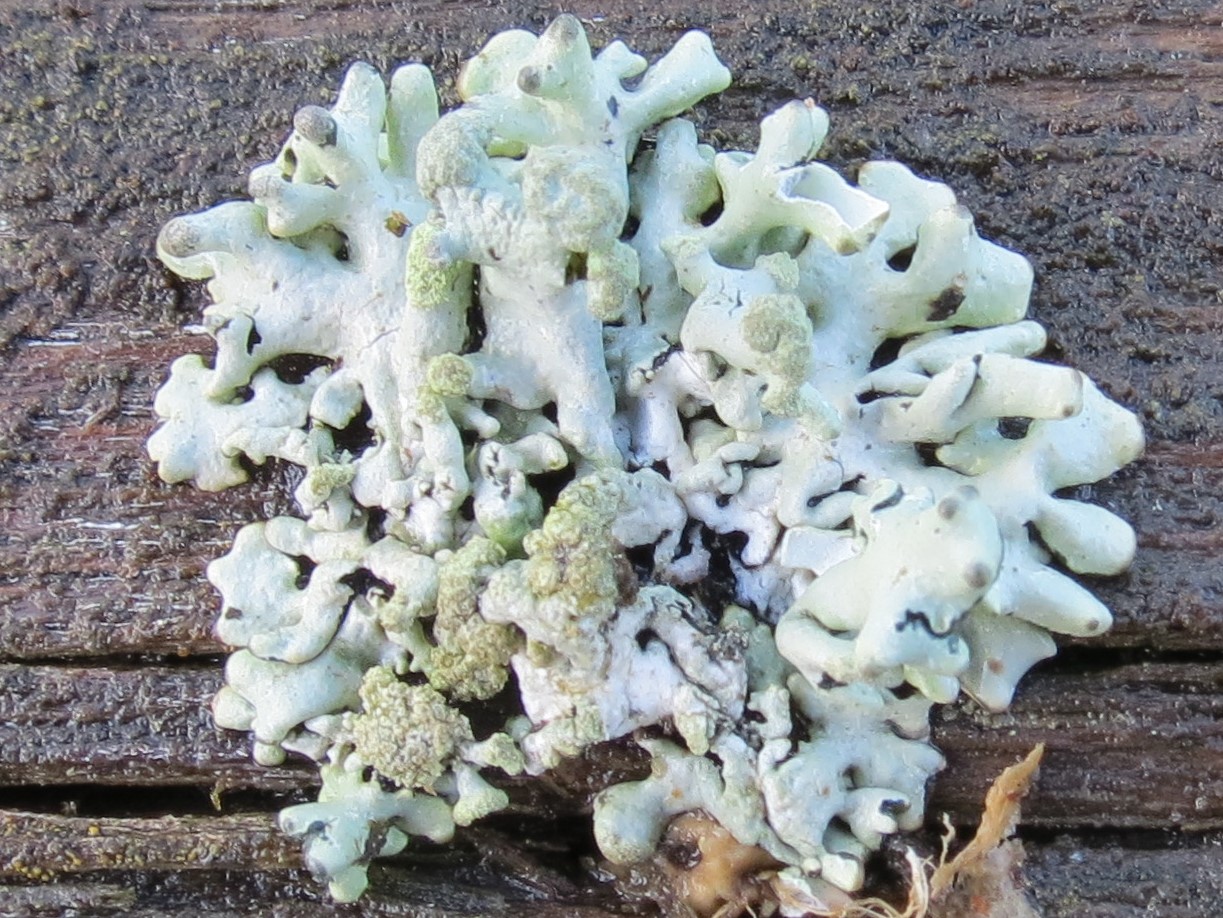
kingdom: Fungi
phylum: Ascomycota
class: Lecanoromycetes
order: Lecanorales
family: Parmeliaceae
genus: Hypogymnia
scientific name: Hypogymnia tubulosa
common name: finger-kvistlav
